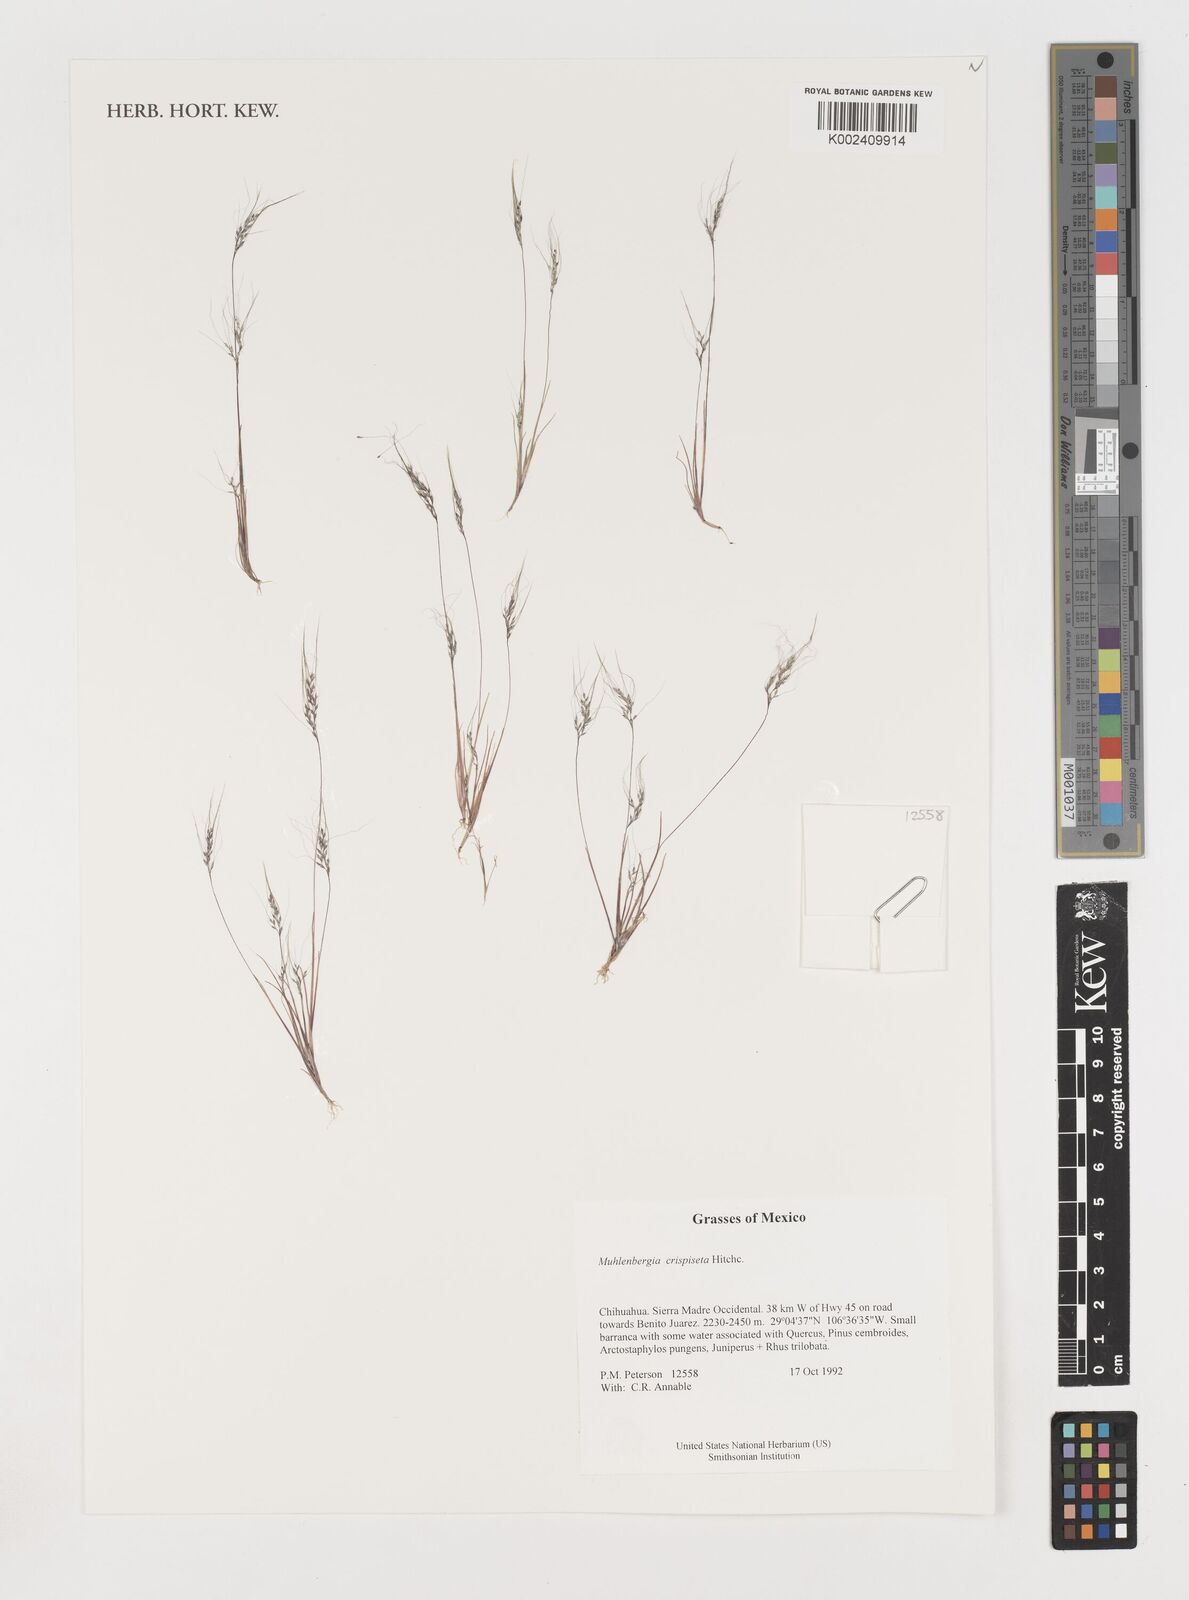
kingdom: Plantae
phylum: Tracheophyta
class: Liliopsida
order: Poales
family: Poaceae
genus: Muhlenbergia
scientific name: Muhlenbergia crispiseta
